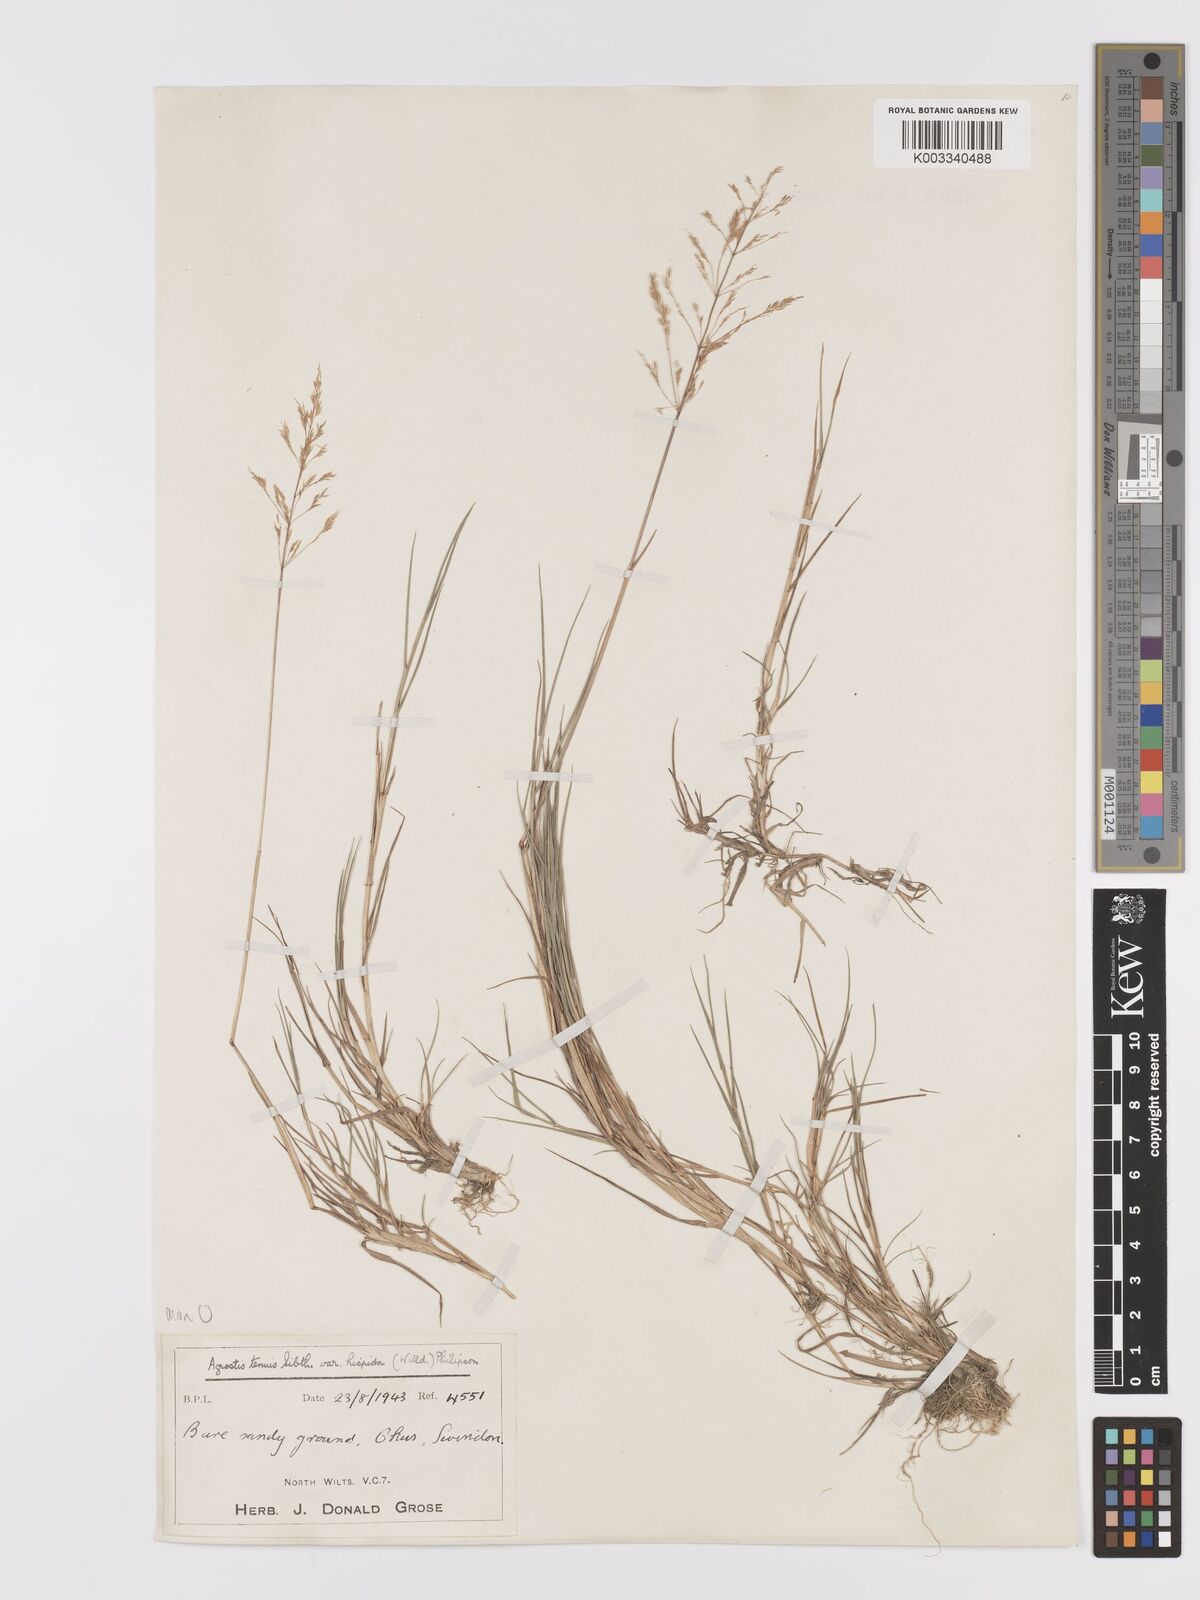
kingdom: Plantae
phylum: Tracheophyta
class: Liliopsida
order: Poales
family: Poaceae
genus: Agrostis
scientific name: Agrostis capillaris
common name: Colonial bentgrass
